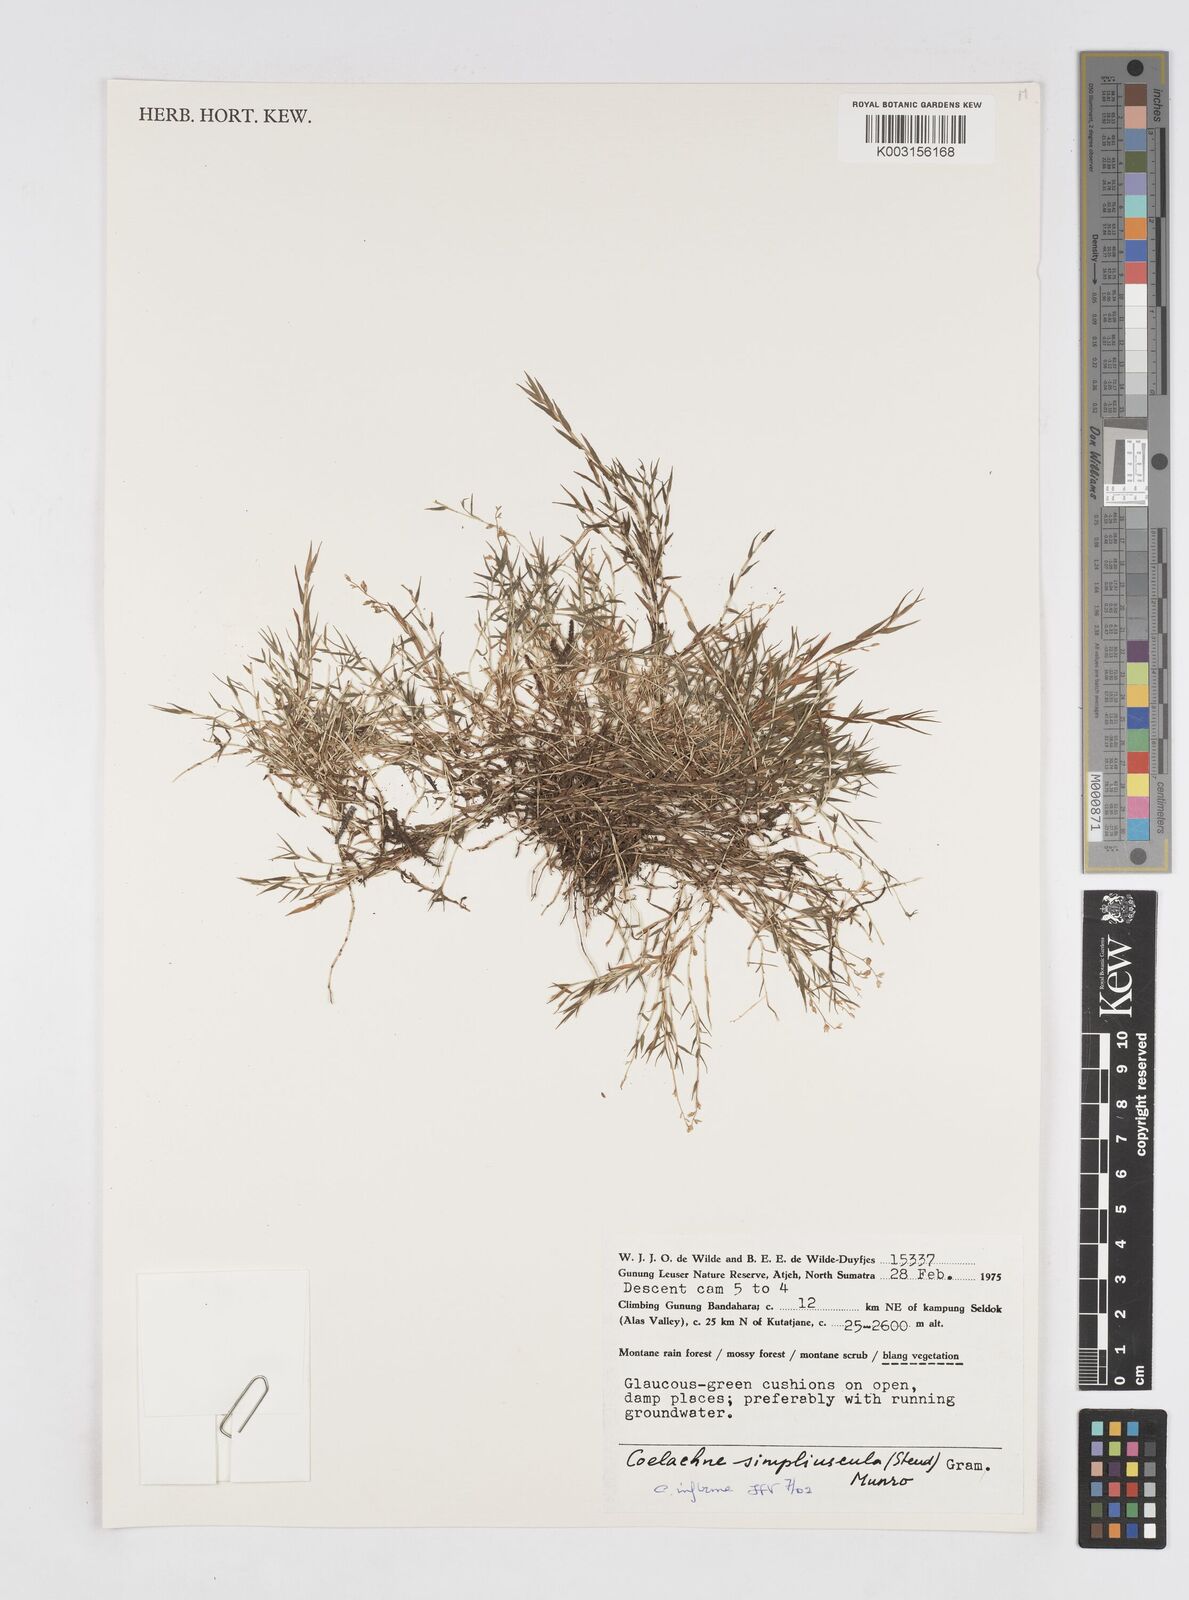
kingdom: Plantae
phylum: Tracheophyta
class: Liliopsida
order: Poales
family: Poaceae
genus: Coelachne
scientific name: Coelachne infirma
